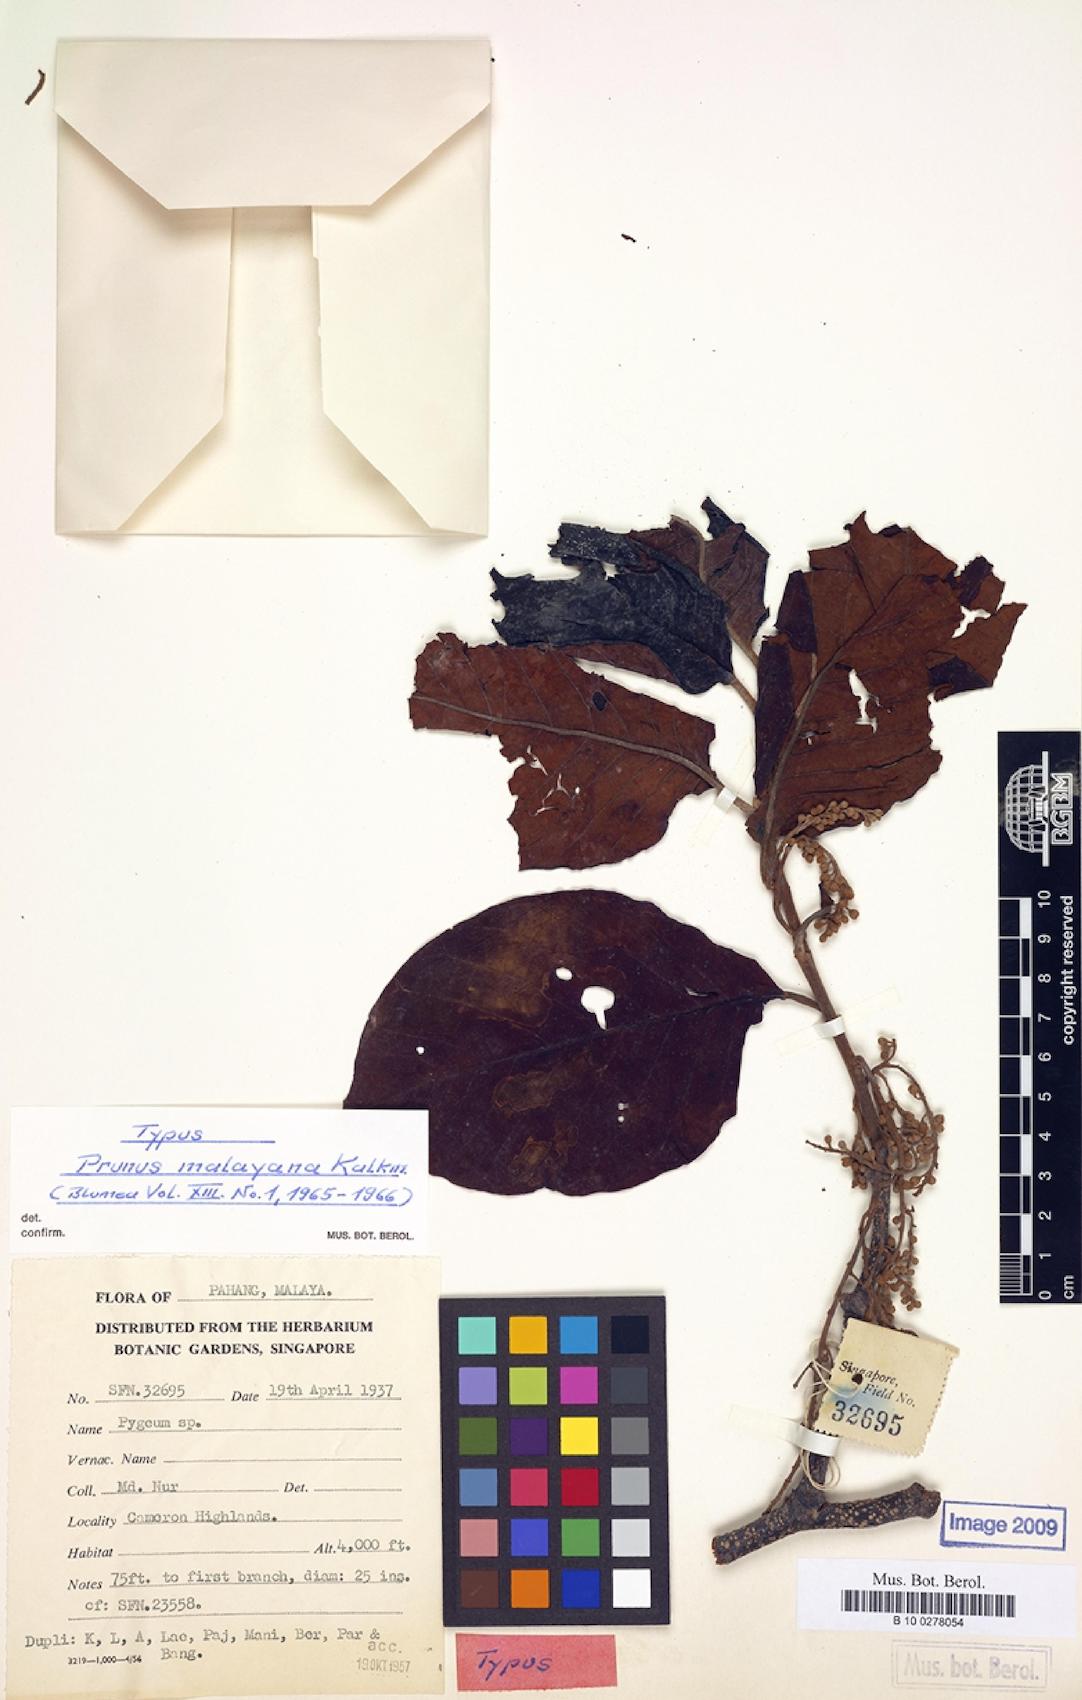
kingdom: Plantae
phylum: Tracheophyta
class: Magnoliopsida
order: Rosales
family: Rosaceae
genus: Prunus
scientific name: Prunus malayana
